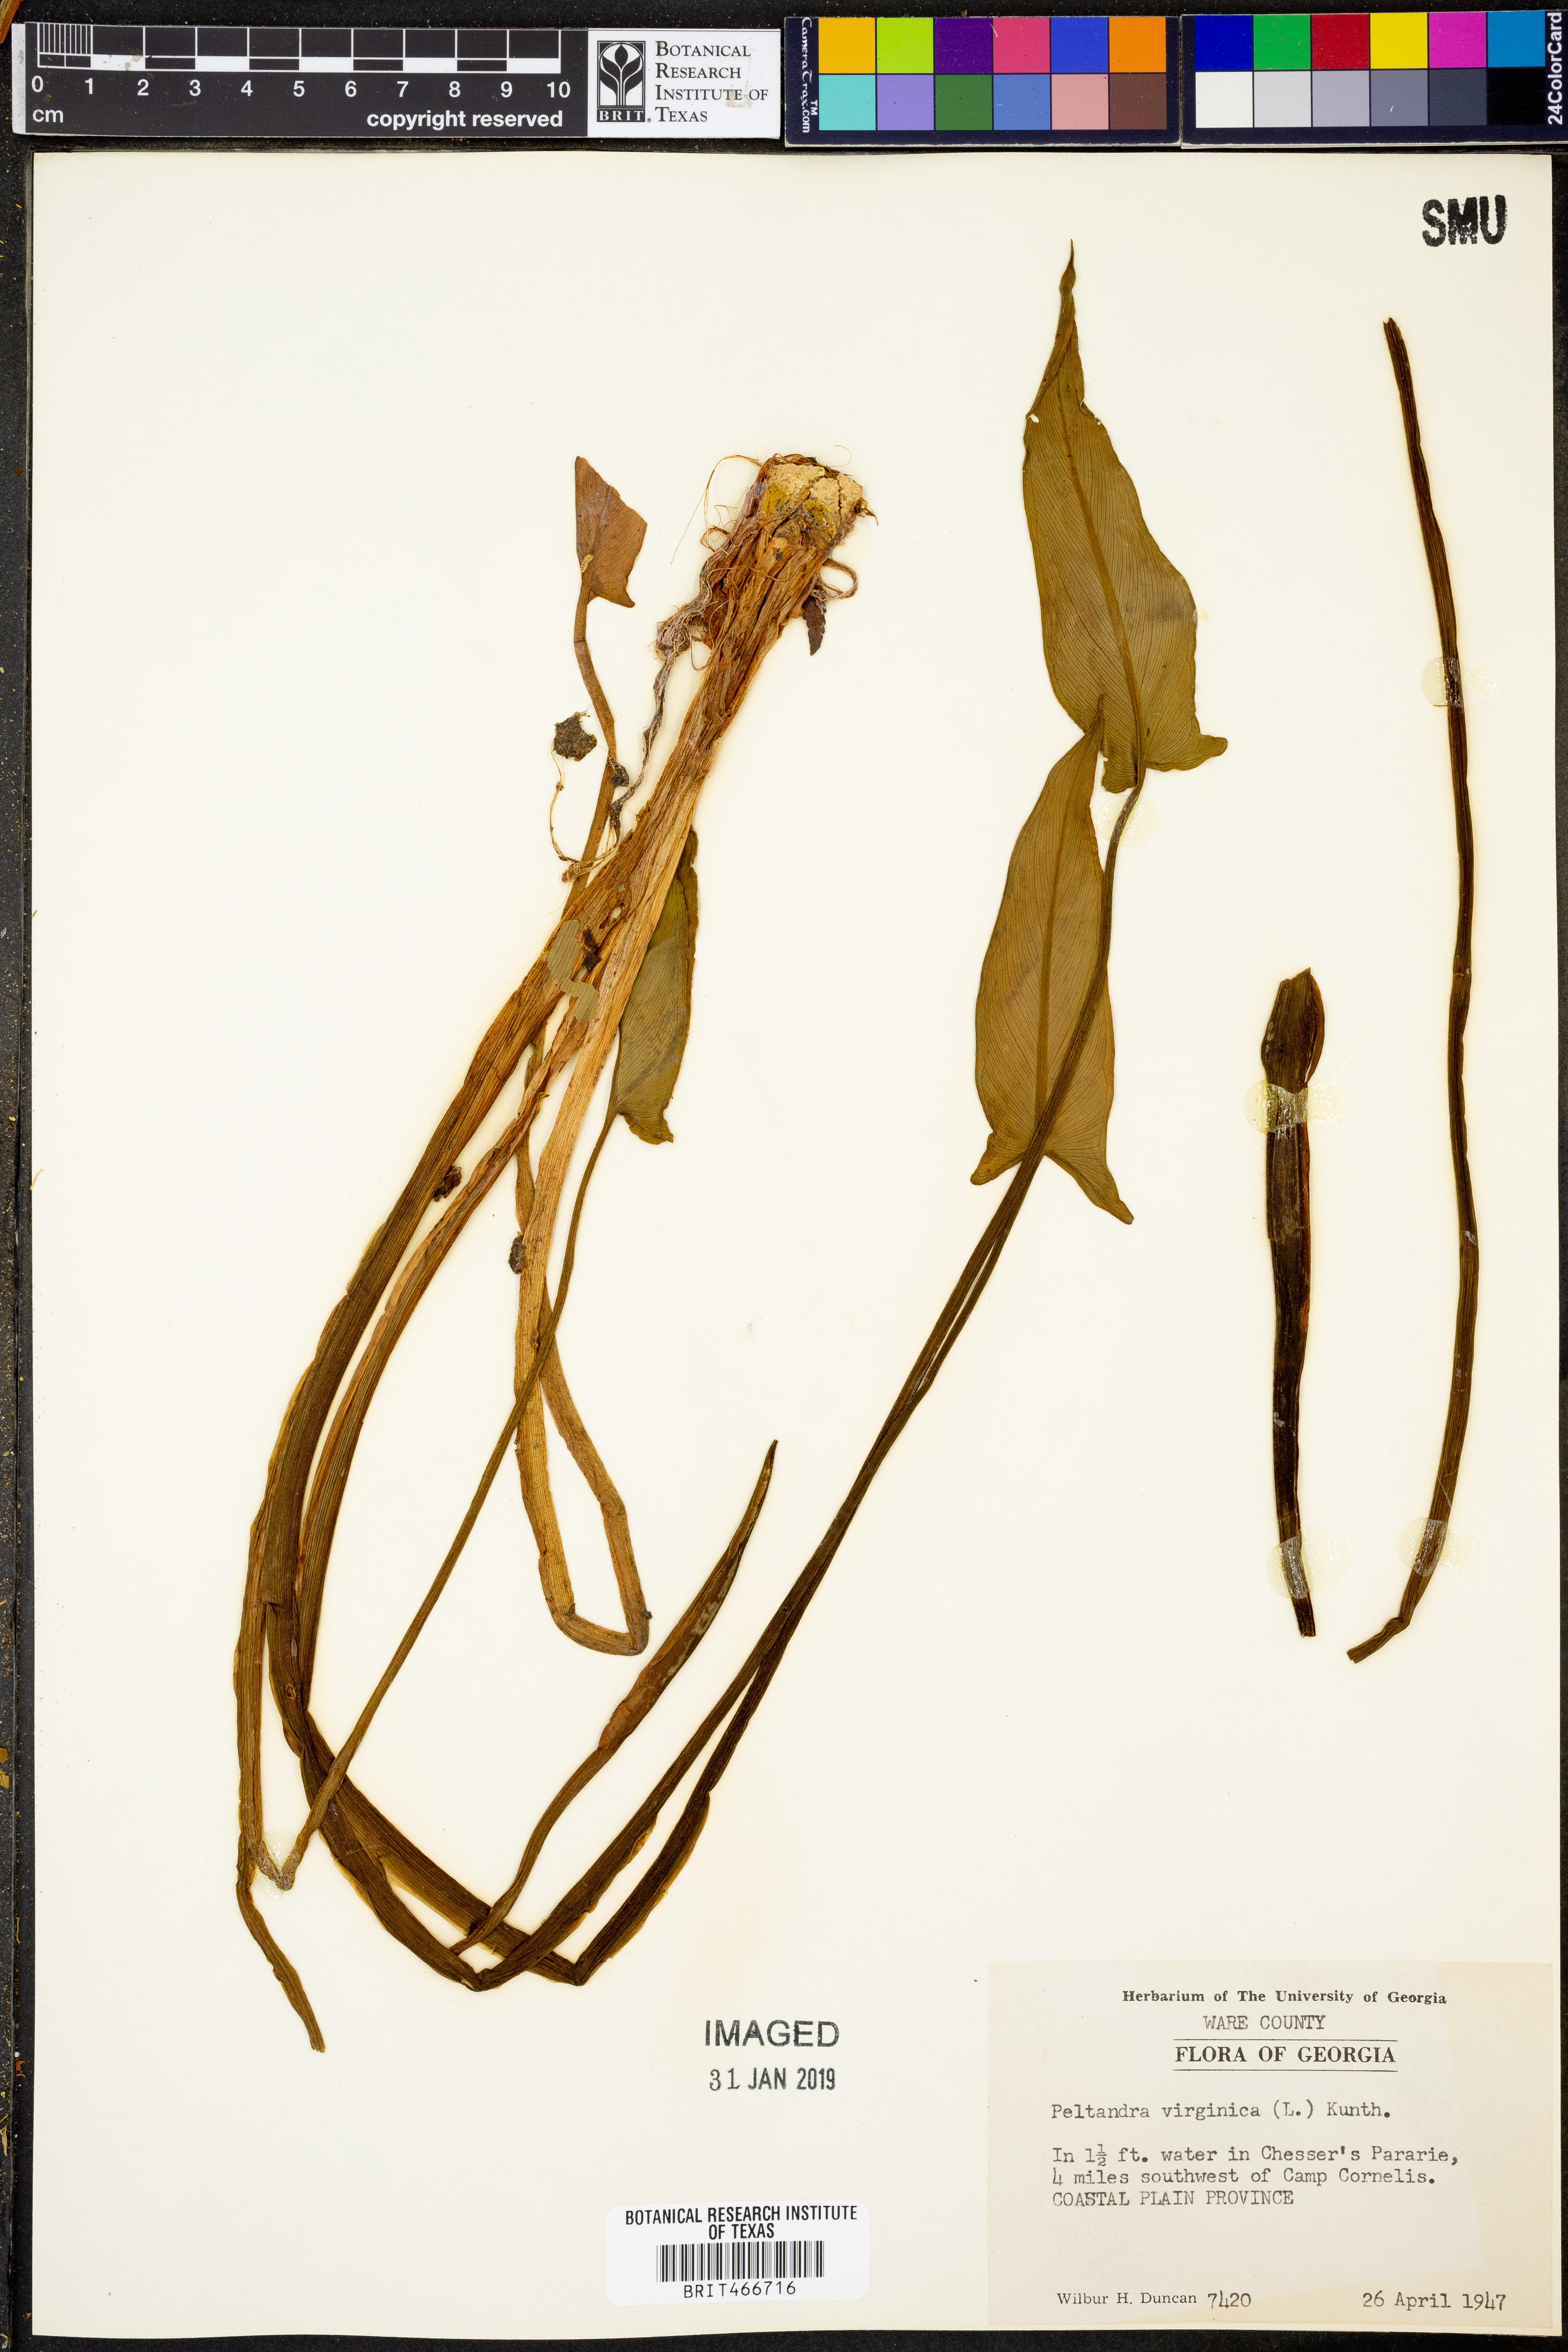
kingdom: Plantae
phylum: Tracheophyta
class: Liliopsida
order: Alismatales
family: Araceae
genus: Peltandra
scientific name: Peltandra virginica
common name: Arrow arum
